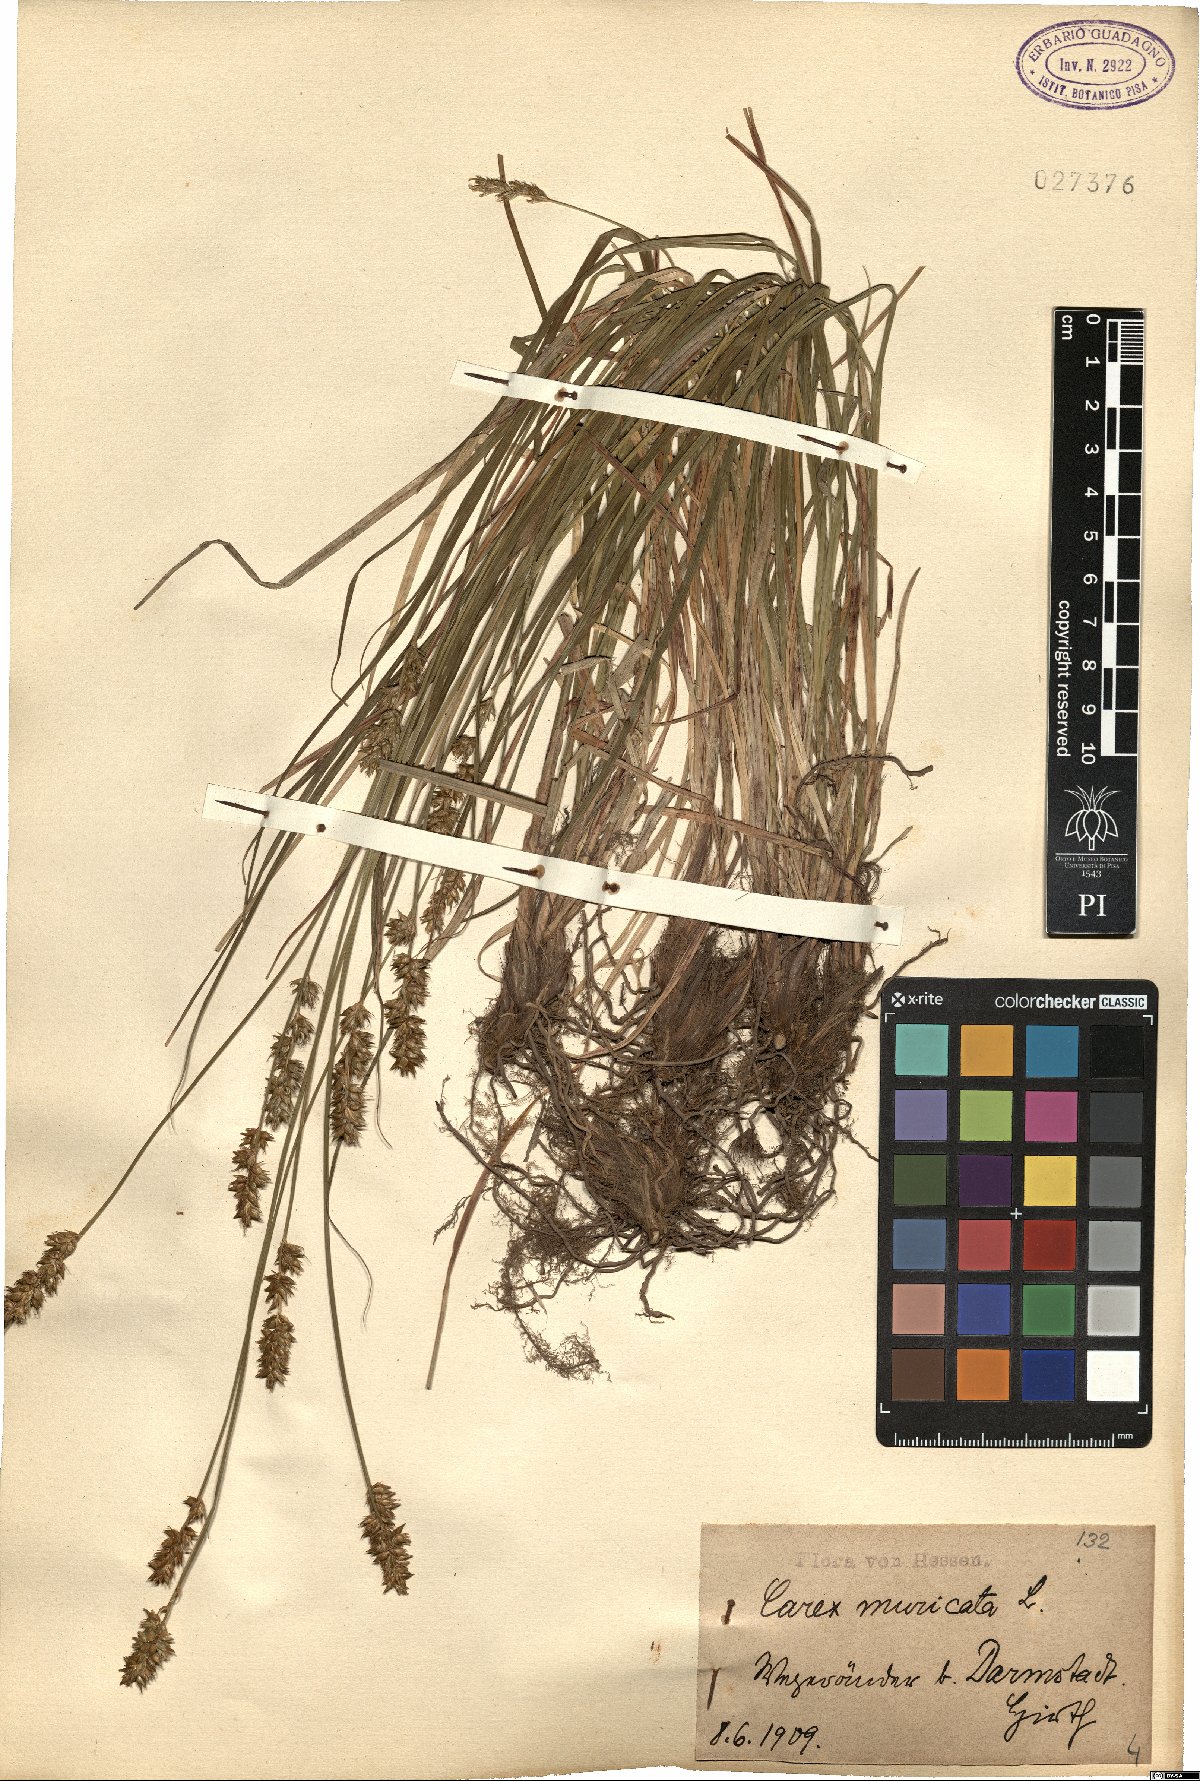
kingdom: Plantae
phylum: Tracheophyta
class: Liliopsida
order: Poales
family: Cyperaceae
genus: Carex
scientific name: Carex muricata
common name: Rough sedge
